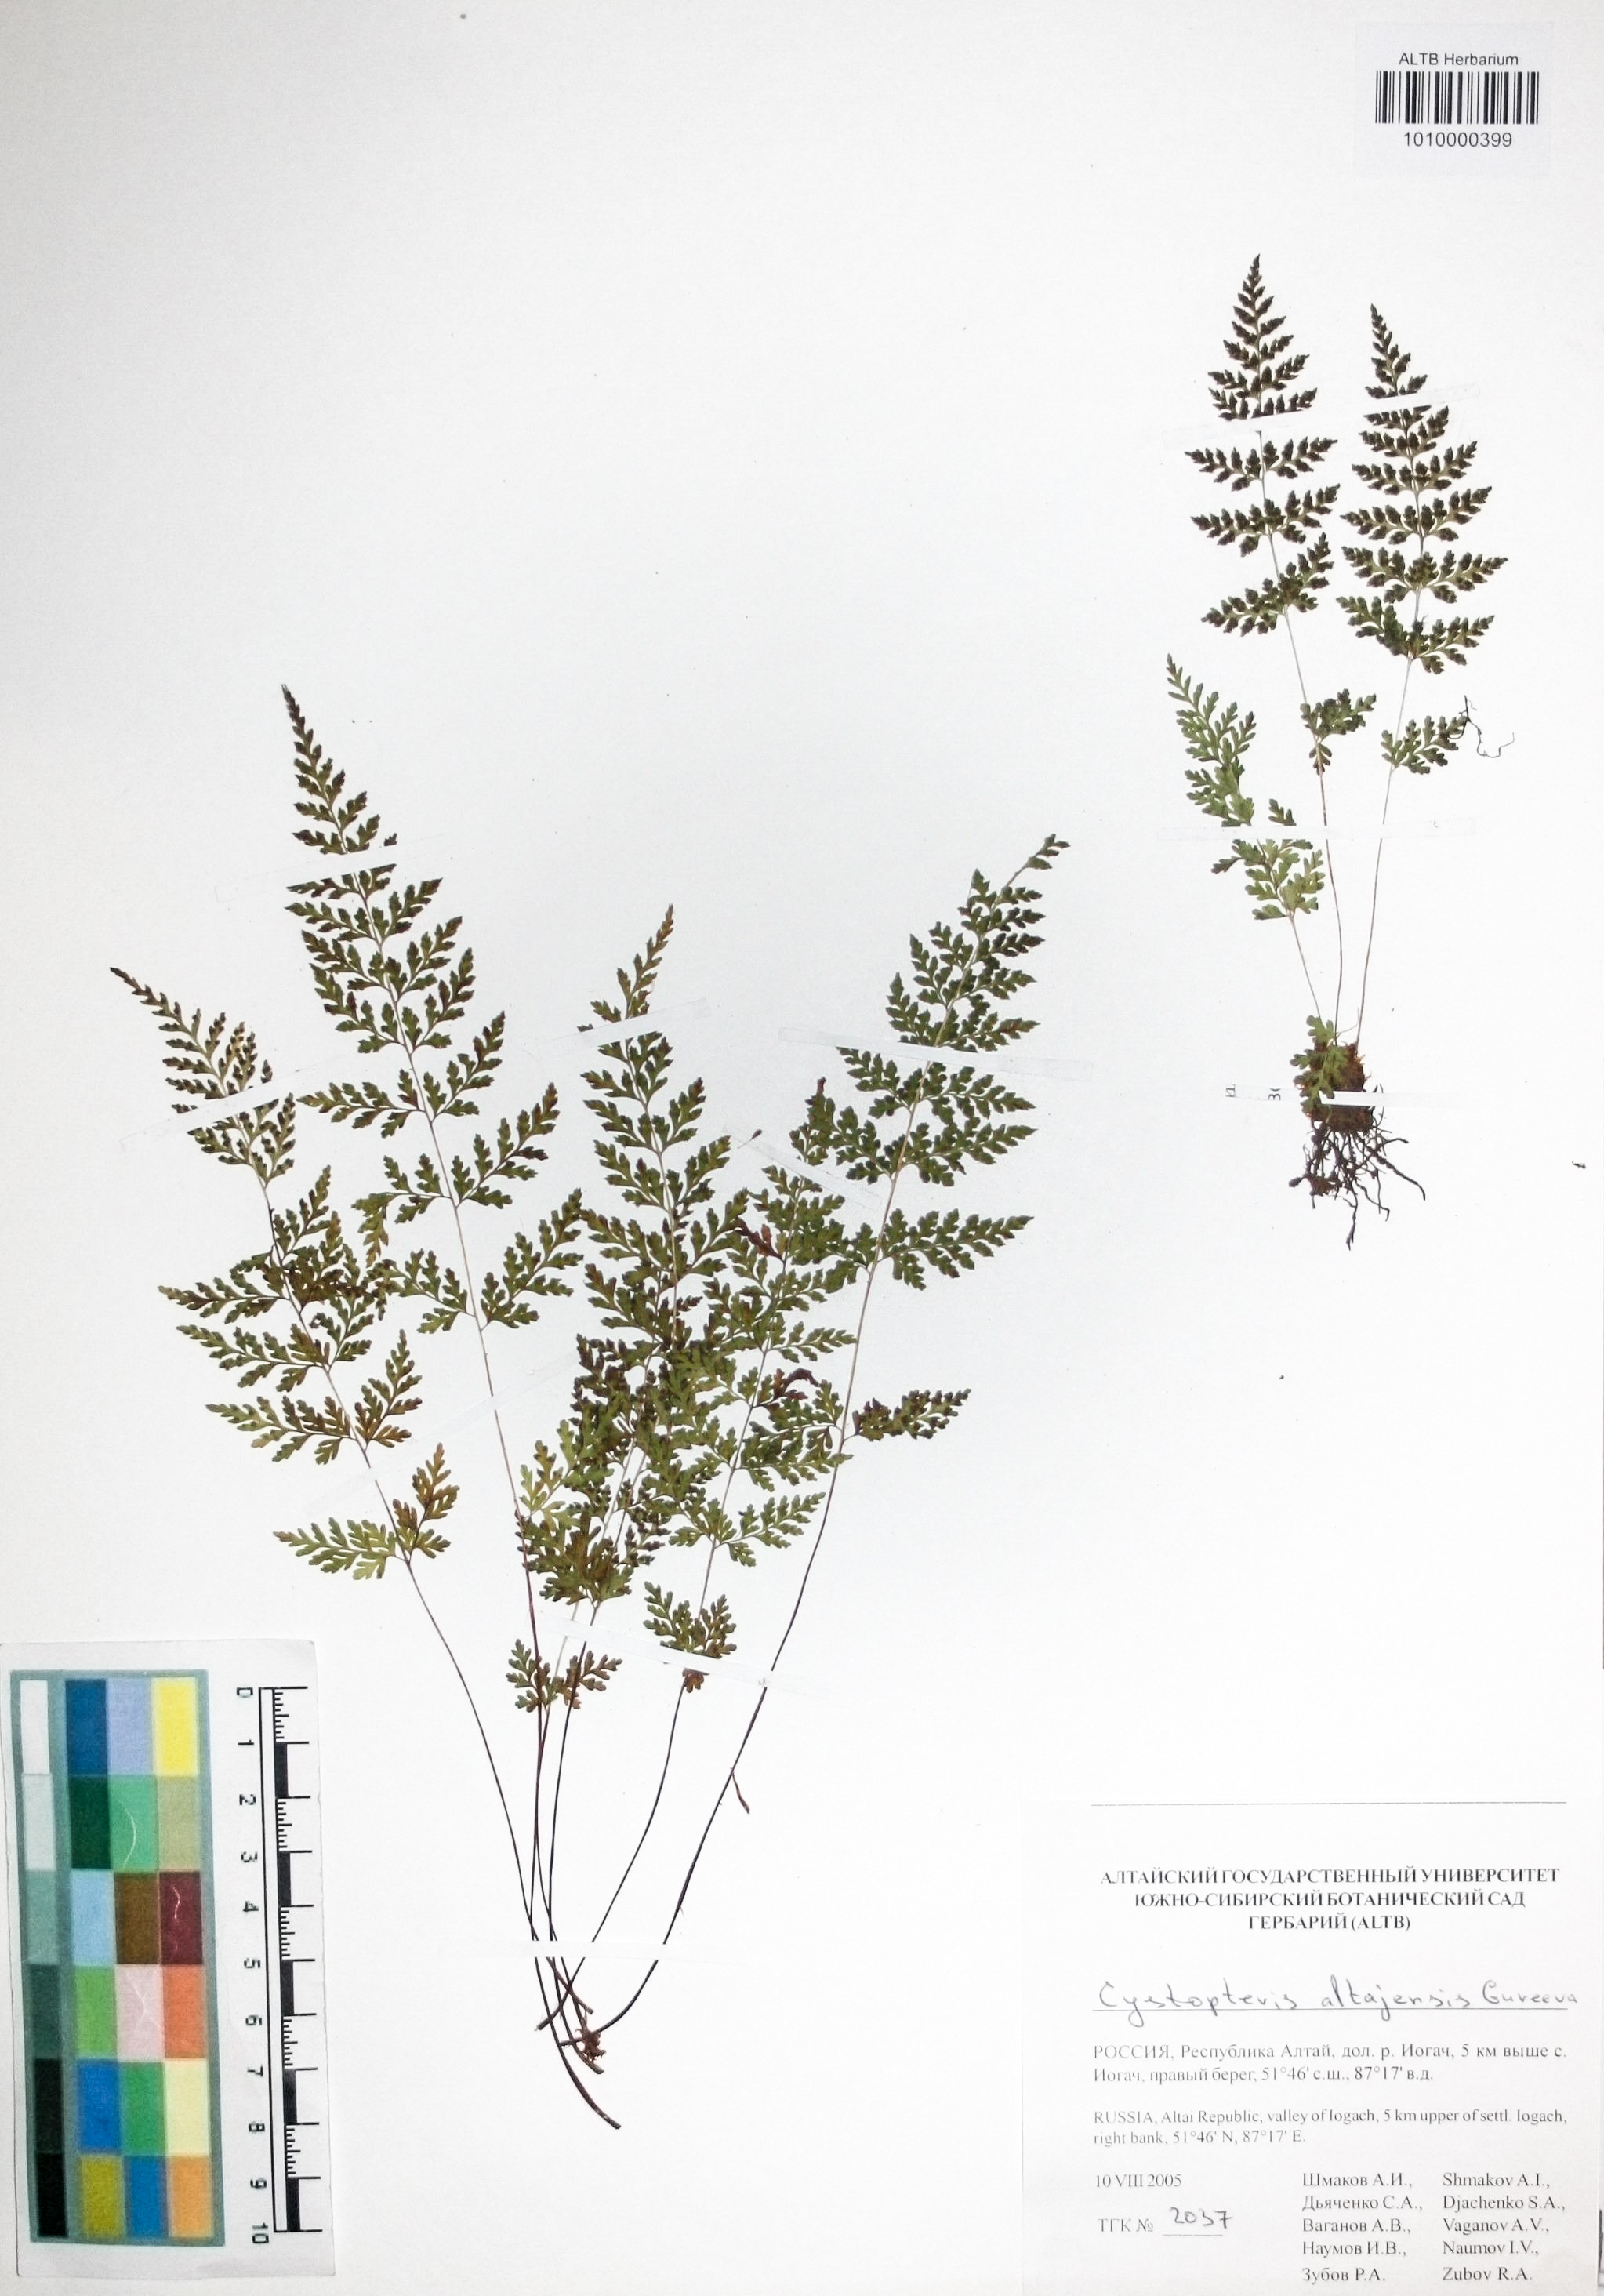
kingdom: Plantae
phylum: Tracheophyta
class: Polypodiopsida
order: Polypodiales
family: Cystopteridaceae
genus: Cystopteris
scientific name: Cystopteris diaphana
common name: Greenish bladder-fern
